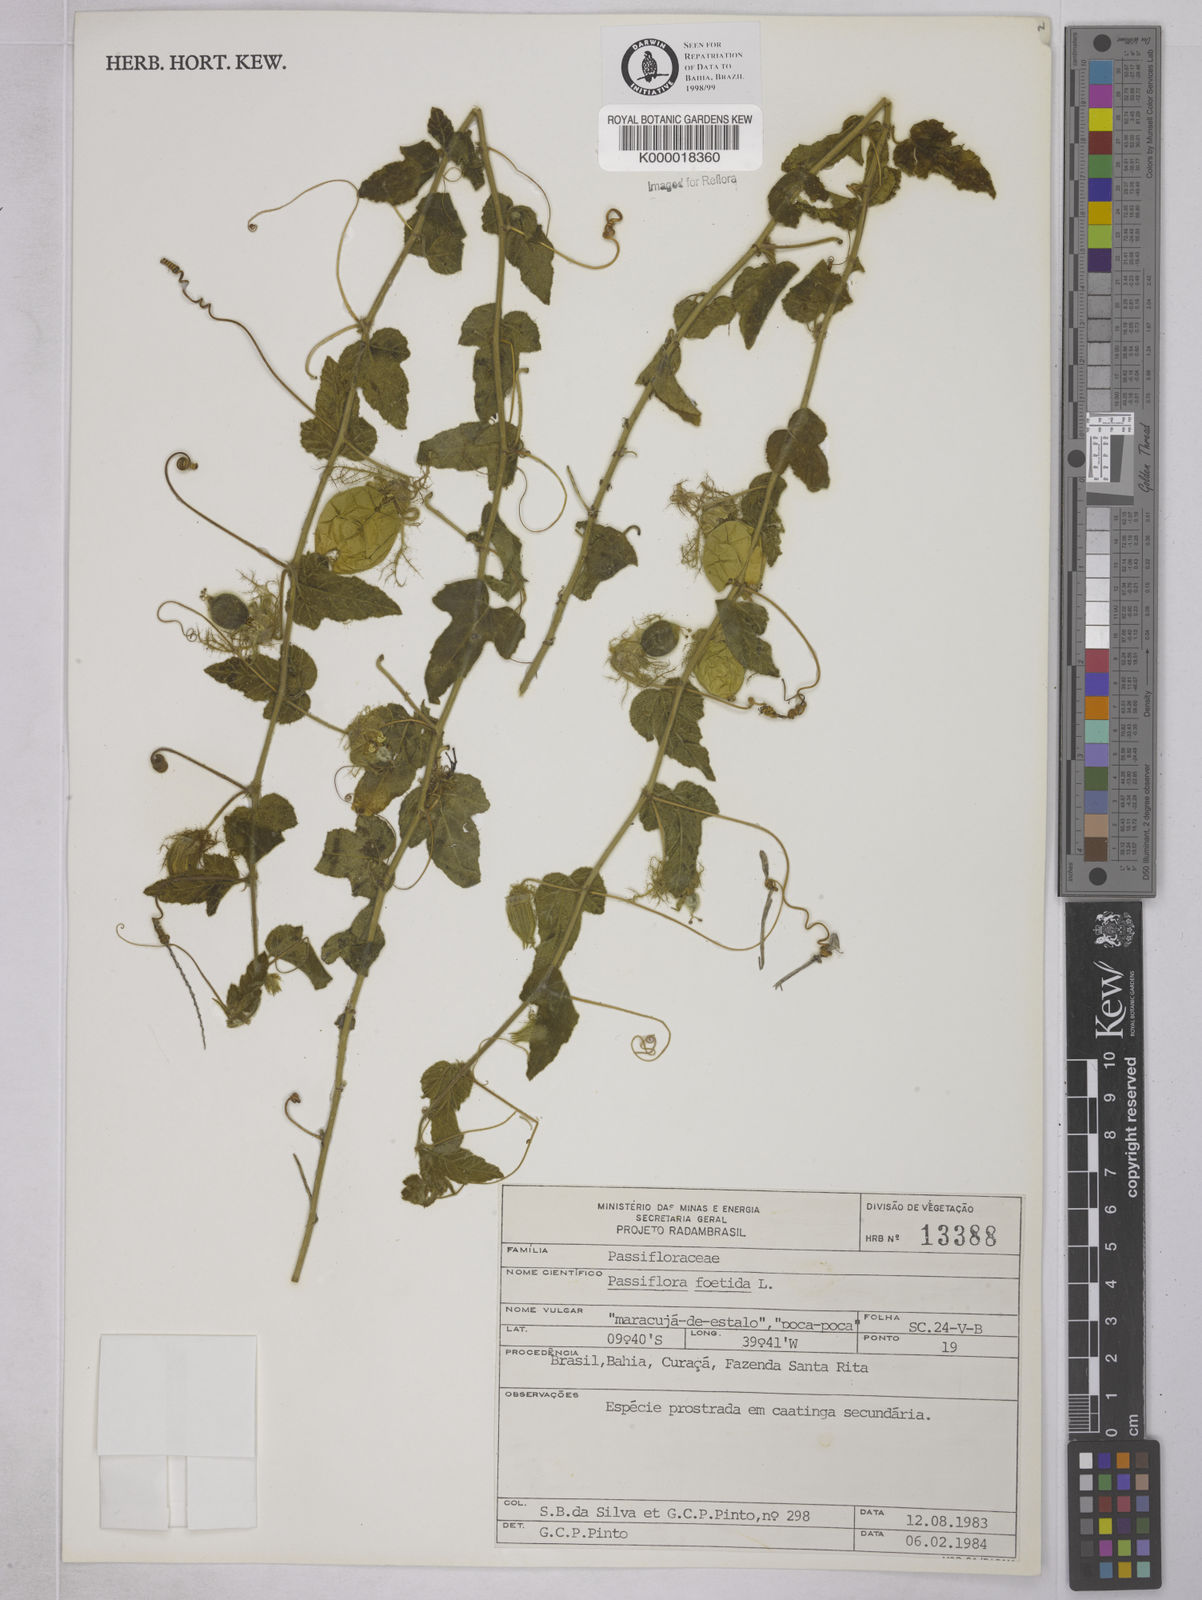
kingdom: Plantae
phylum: Tracheophyta
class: Magnoliopsida
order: Malpighiales
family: Passifloraceae
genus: Passiflora
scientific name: Passiflora foetida
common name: Fetid passionflower
